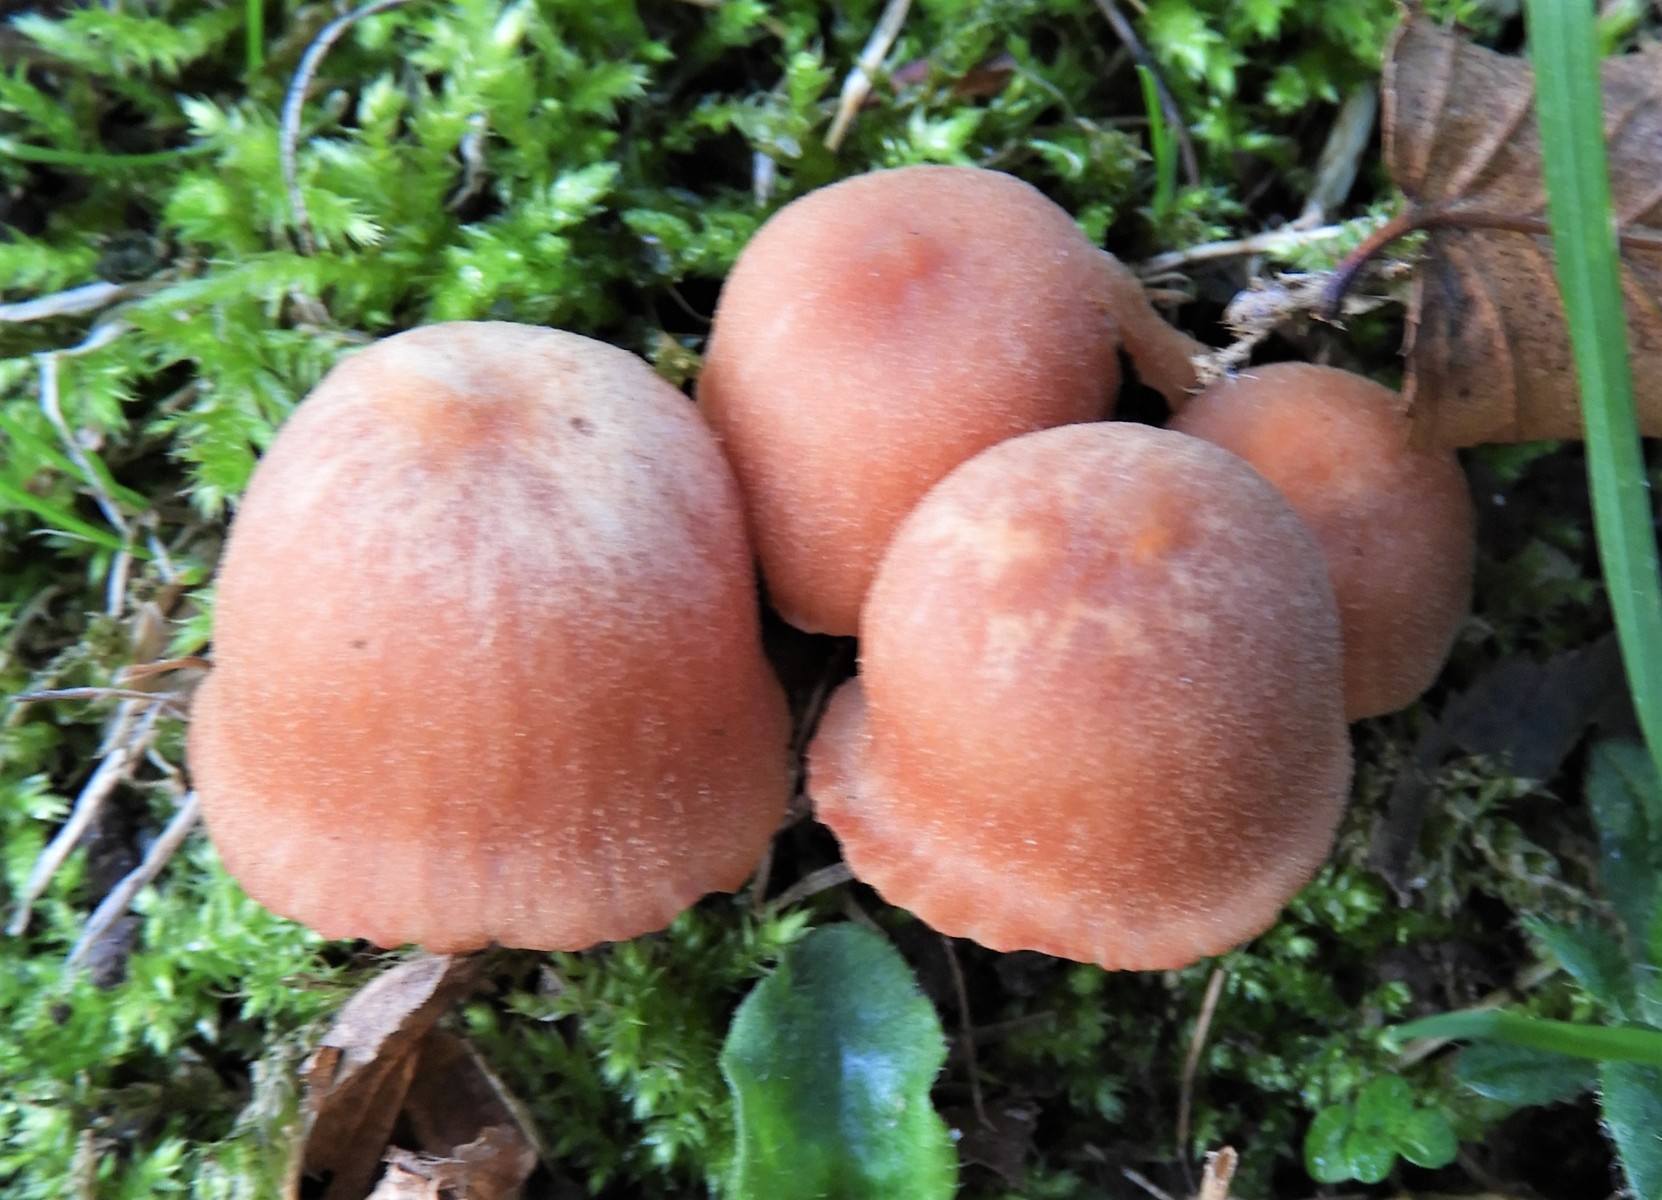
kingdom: Fungi
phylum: Basidiomycota
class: Agaricomycetes
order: Agaricales
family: Hydnangiaceae
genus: Laccaria
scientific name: Laccaria proxima
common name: stor ametysthat
